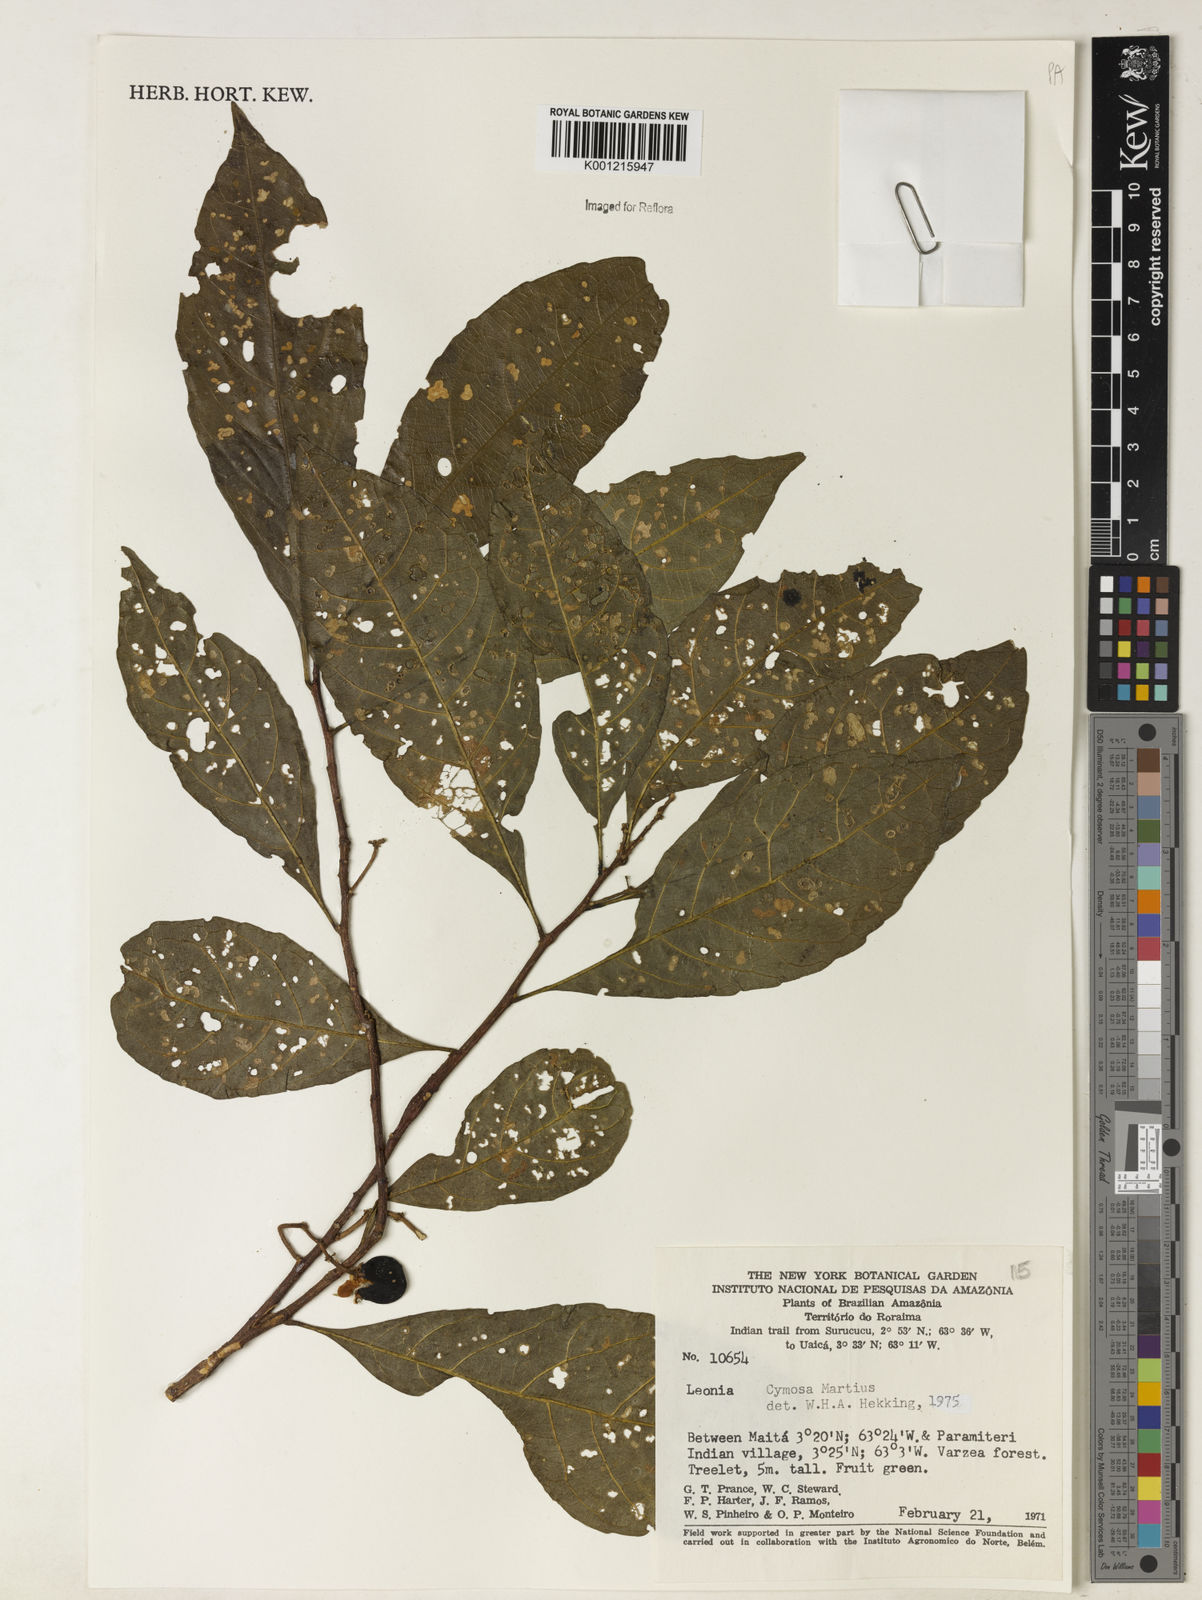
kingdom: Plantae
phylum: Tracheophyta
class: Magnoliopsida
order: Malpighiales
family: Violaceae
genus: Leonia
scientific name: Leonia cymosa
